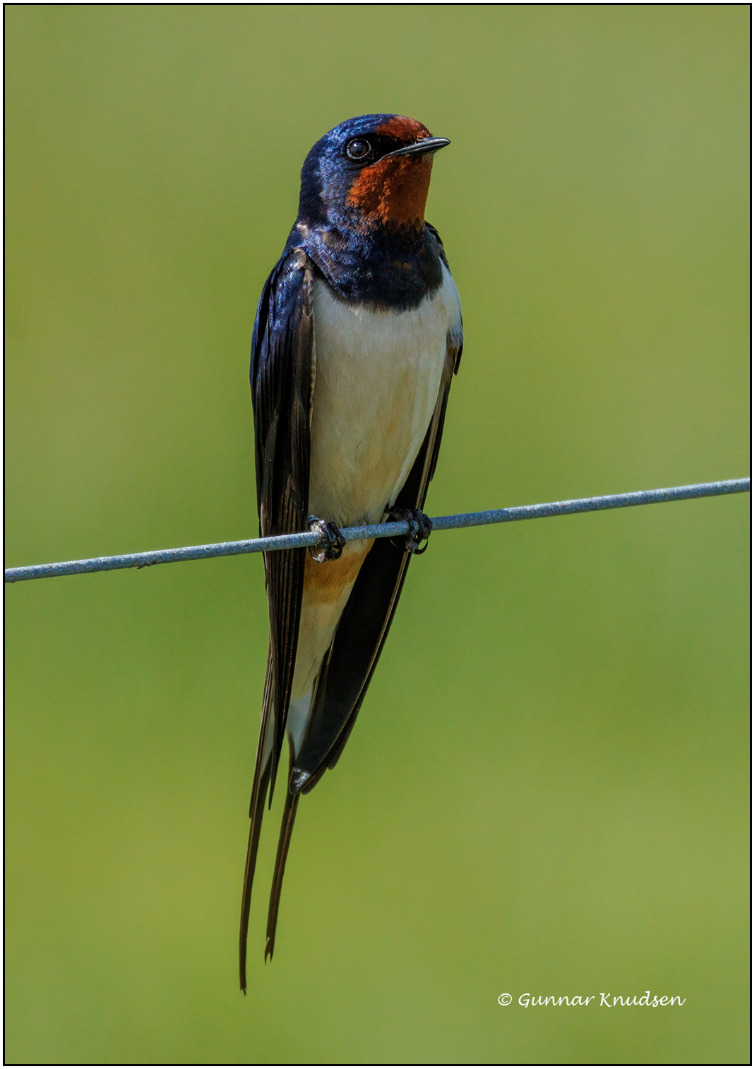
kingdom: Animalia
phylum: Chordata
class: Aves
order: Passeriformes
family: Hirundinidae
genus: Hirundo
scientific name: Hirundo rustica
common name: Landsvale
